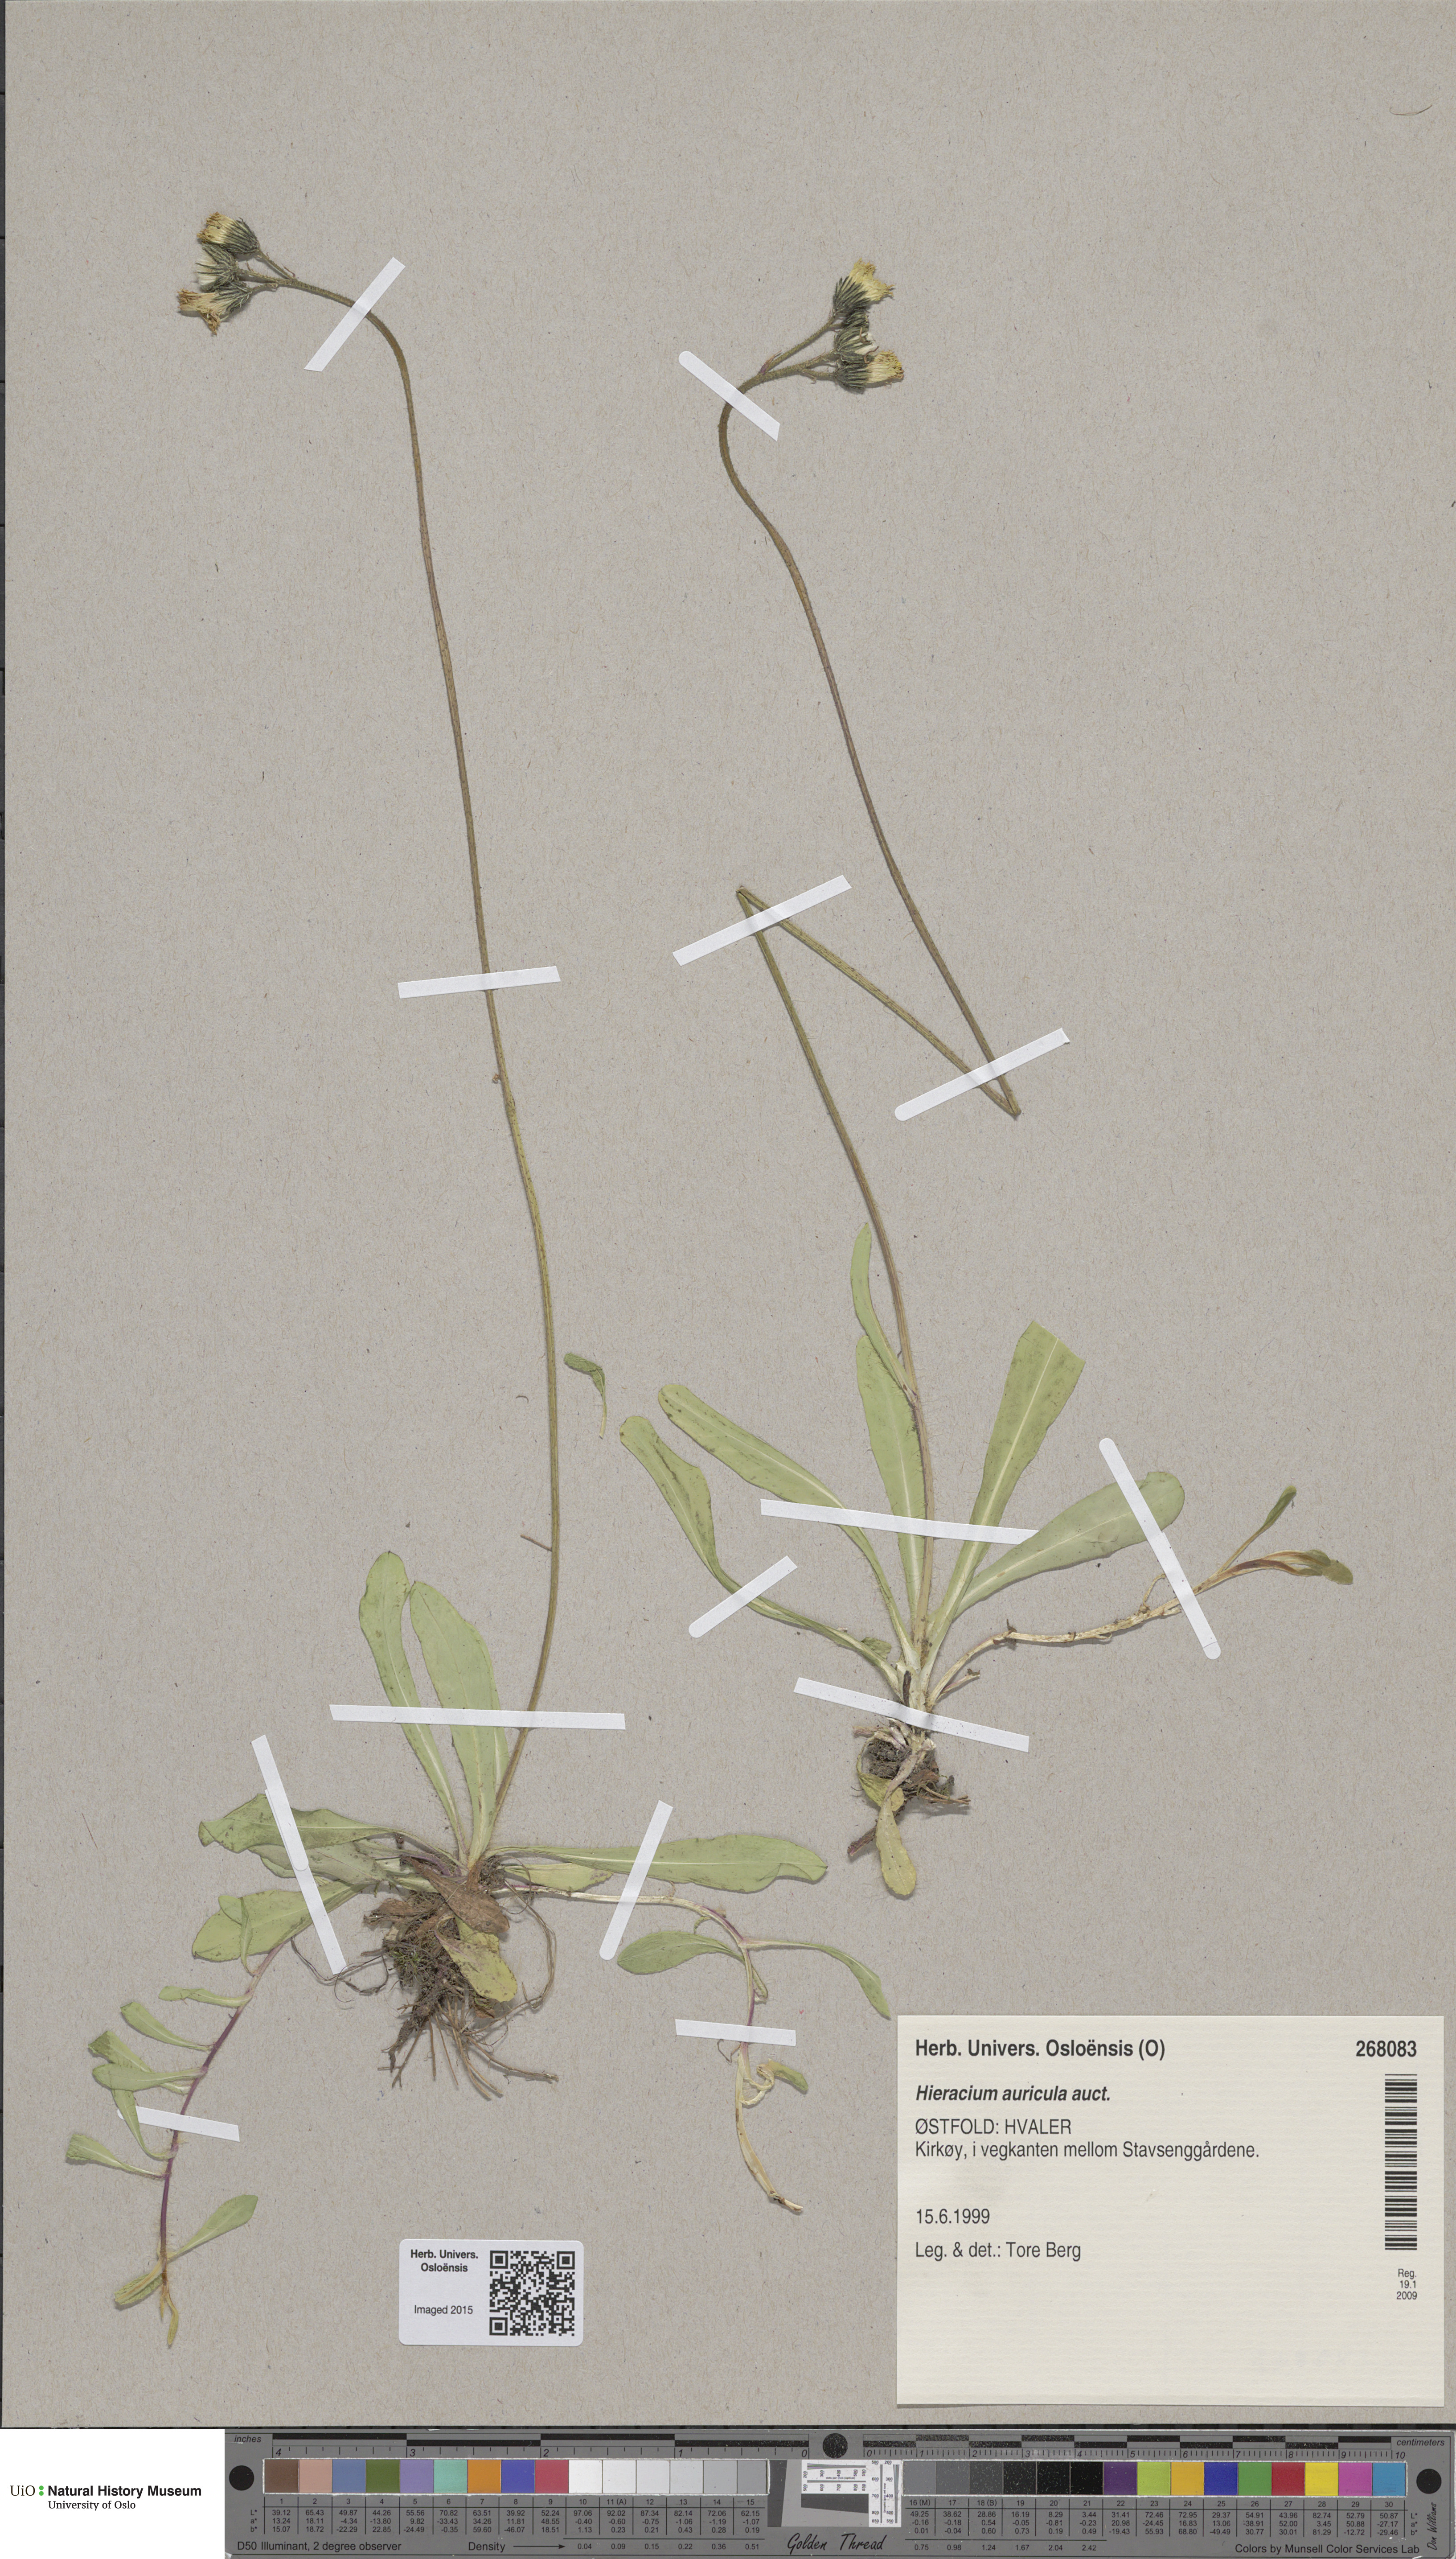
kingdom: Plantae
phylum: Tracheophyta
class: Magnoliopsida
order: Asterales
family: Asteraceae
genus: Pilosella
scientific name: Pilosella lactucella
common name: Glaucous fox-and-cubs
